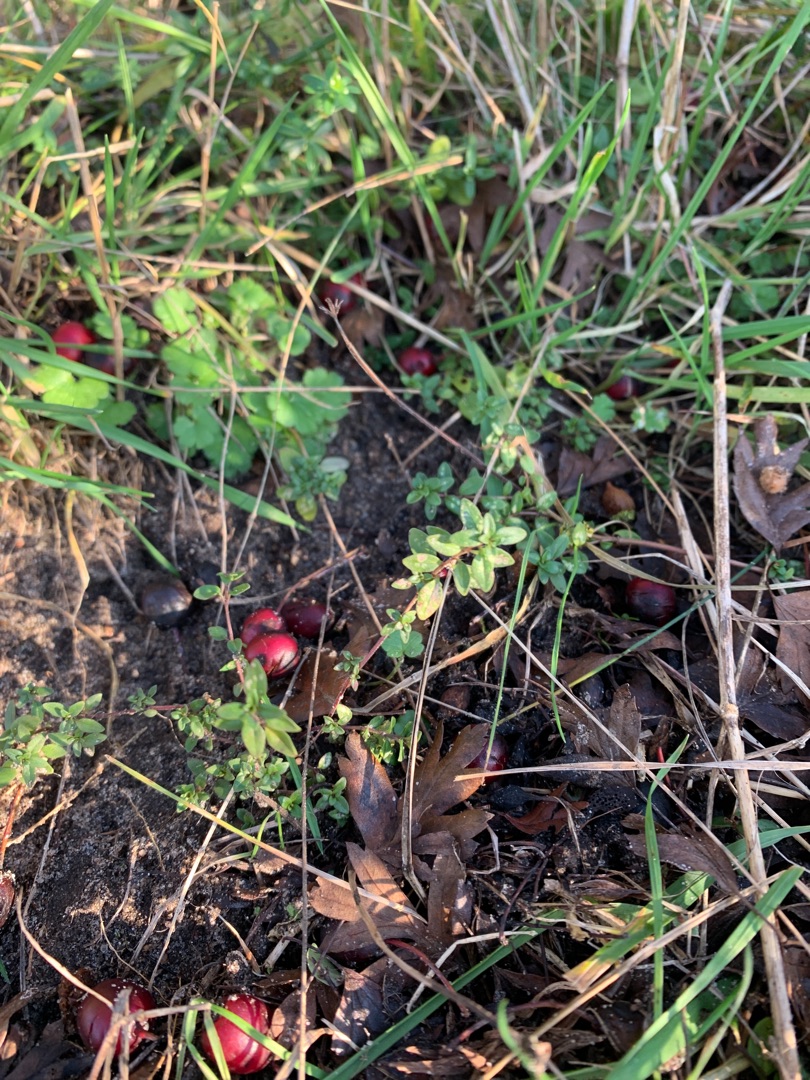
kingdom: Plantae
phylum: Tracheophyta
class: Magnoliopsida
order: Lamiales
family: Lamiaceae
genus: Thymus
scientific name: Thymus pulegioides
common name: Bredbladet timian
